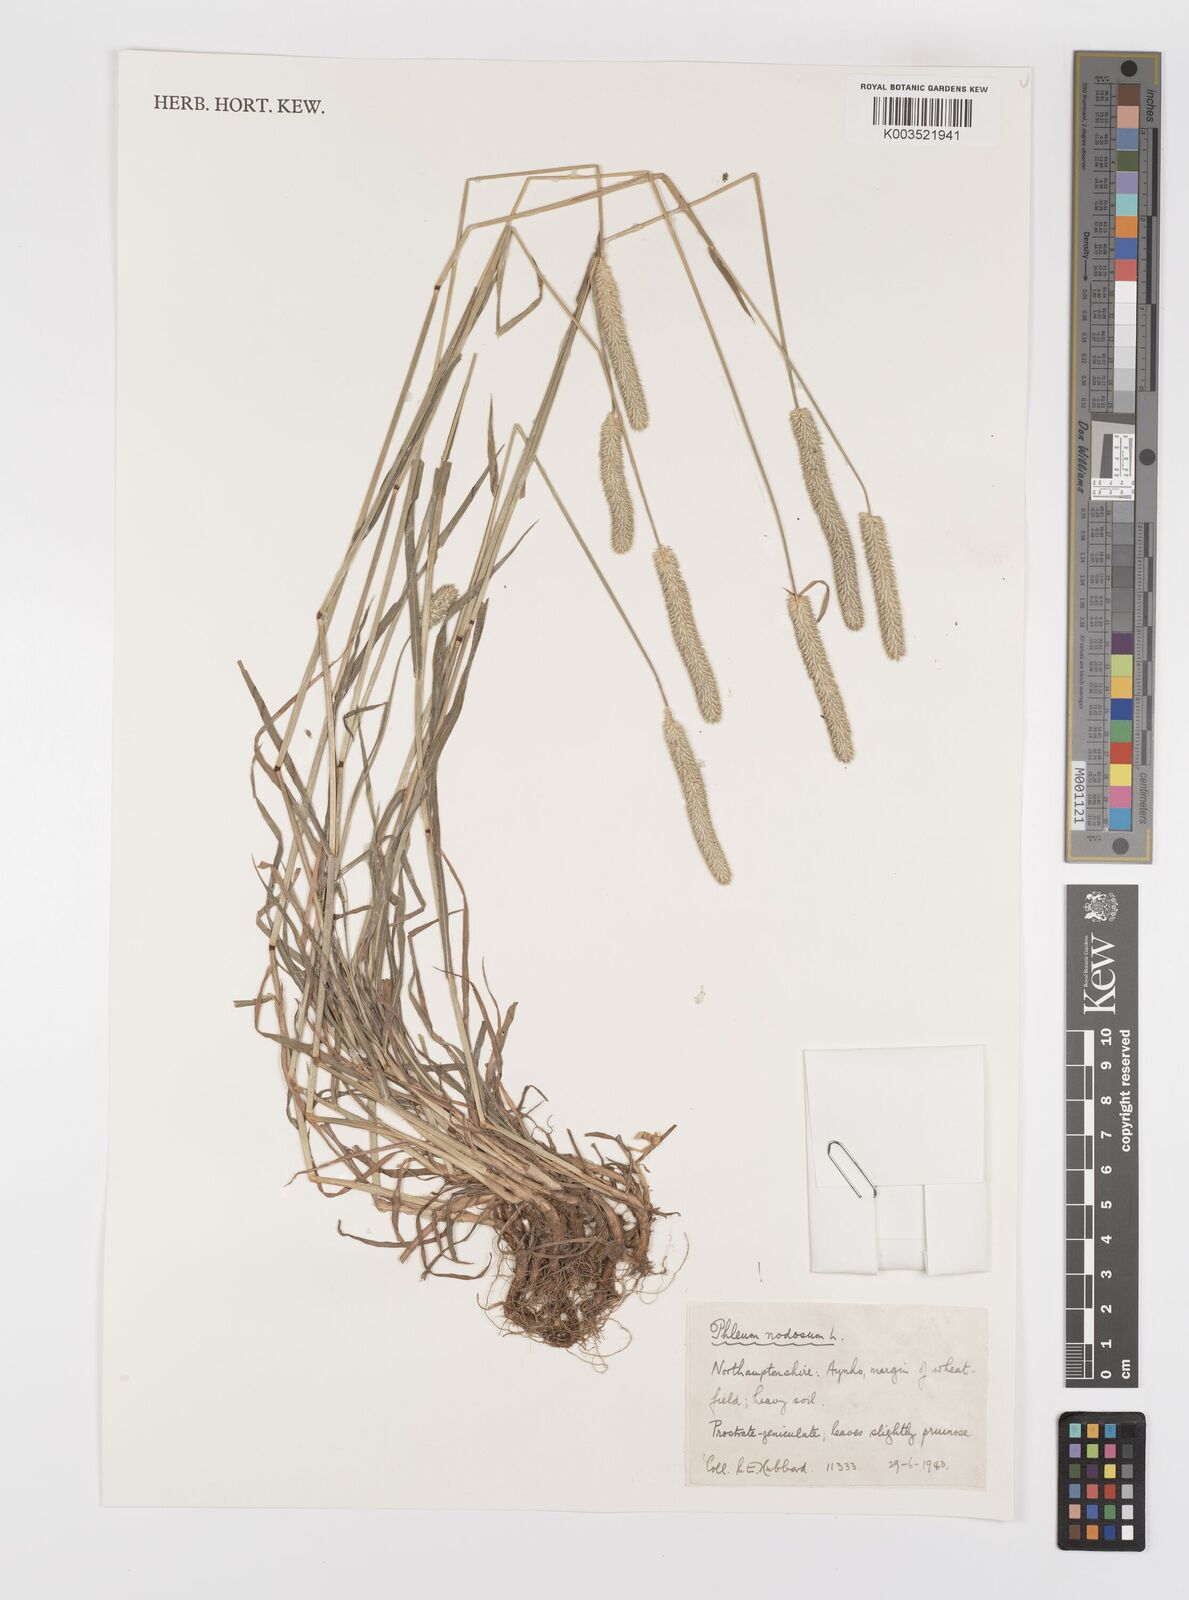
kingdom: Plantae
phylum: Tracheophyta
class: Liliopsida
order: Poales
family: Poaceae
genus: Phleum
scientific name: Phleum bertolonii
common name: Smaller cat's-tail
